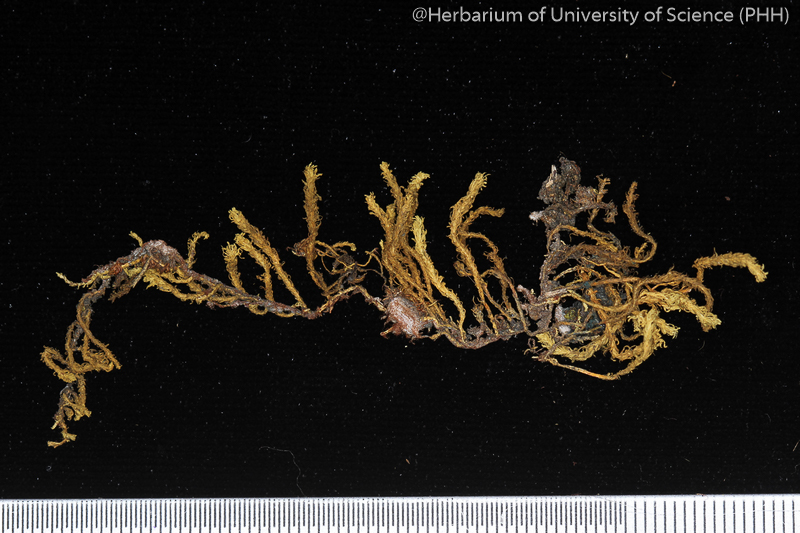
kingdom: Plantae
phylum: Bryophyta
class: Bryopsida
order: Hypnales
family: Anomodontaceae
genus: Anomodon
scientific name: Anomodon
